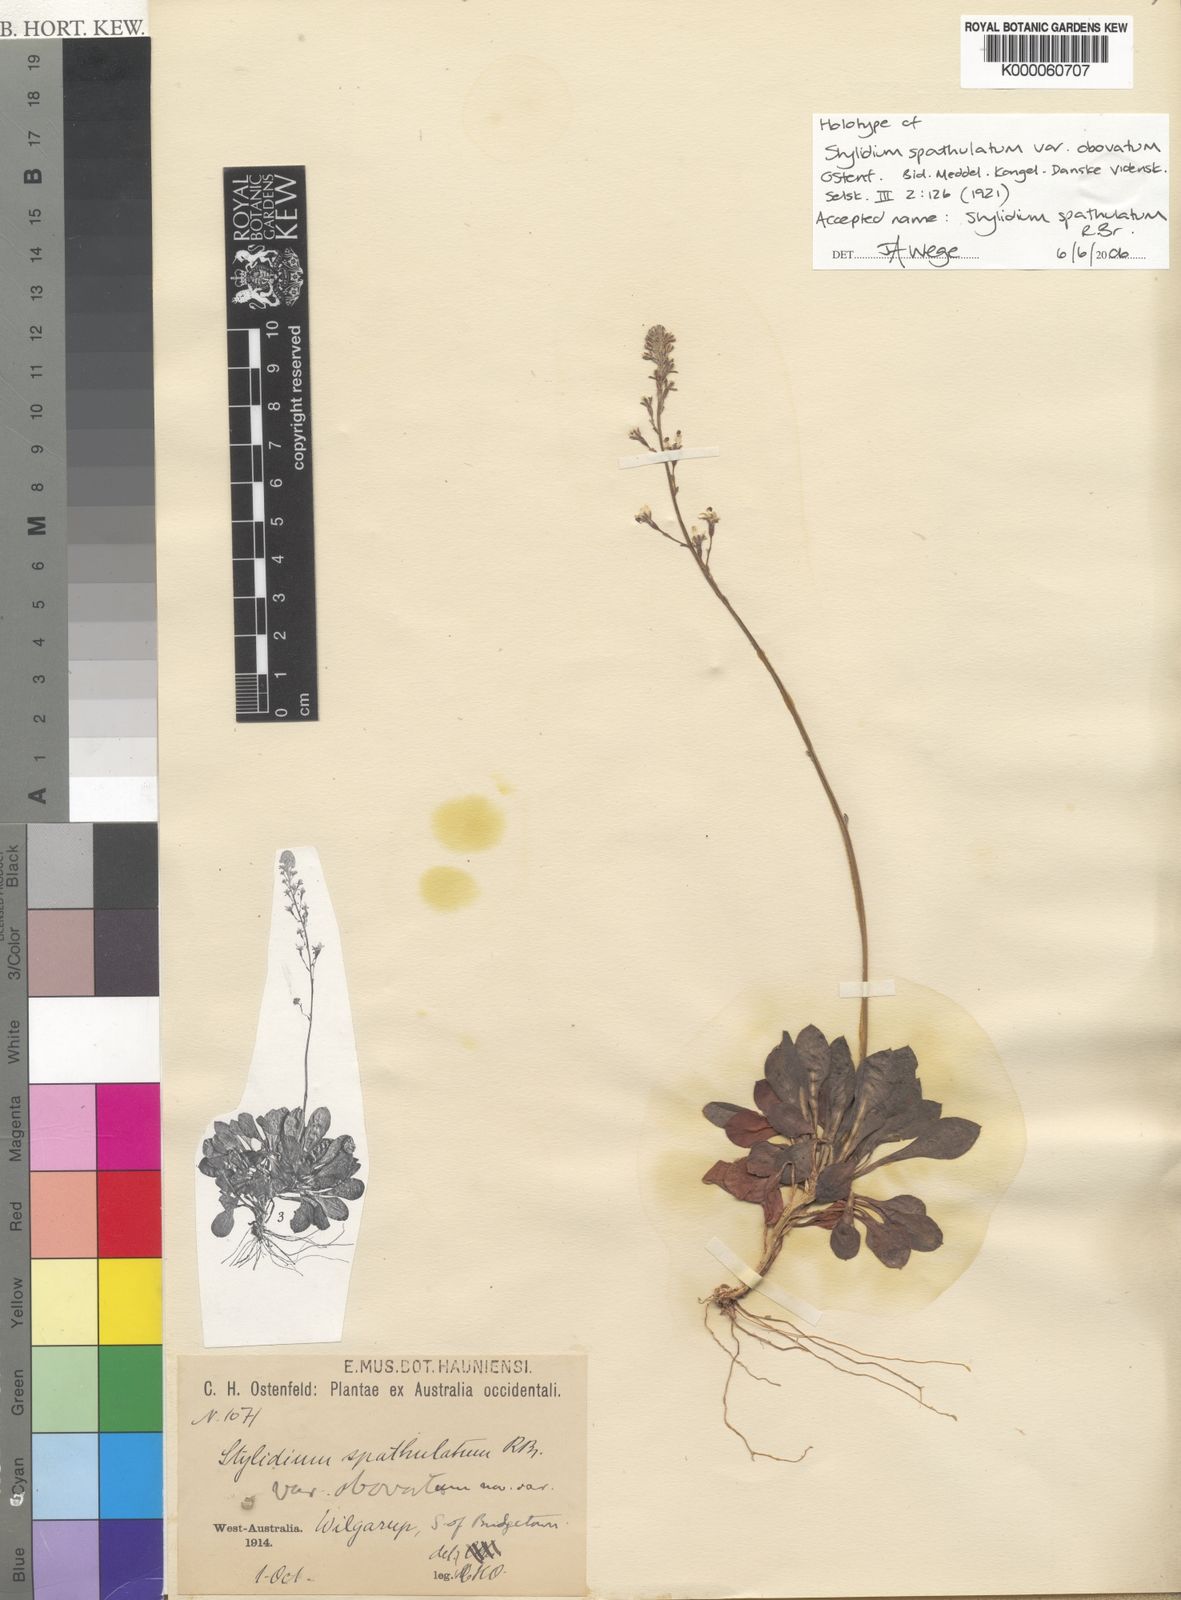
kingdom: Plantae
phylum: Tracheophyta
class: Magnoliopsida
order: Asterales
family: Stylidiaceae
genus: Stylidium
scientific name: Stylidium spathulatum
